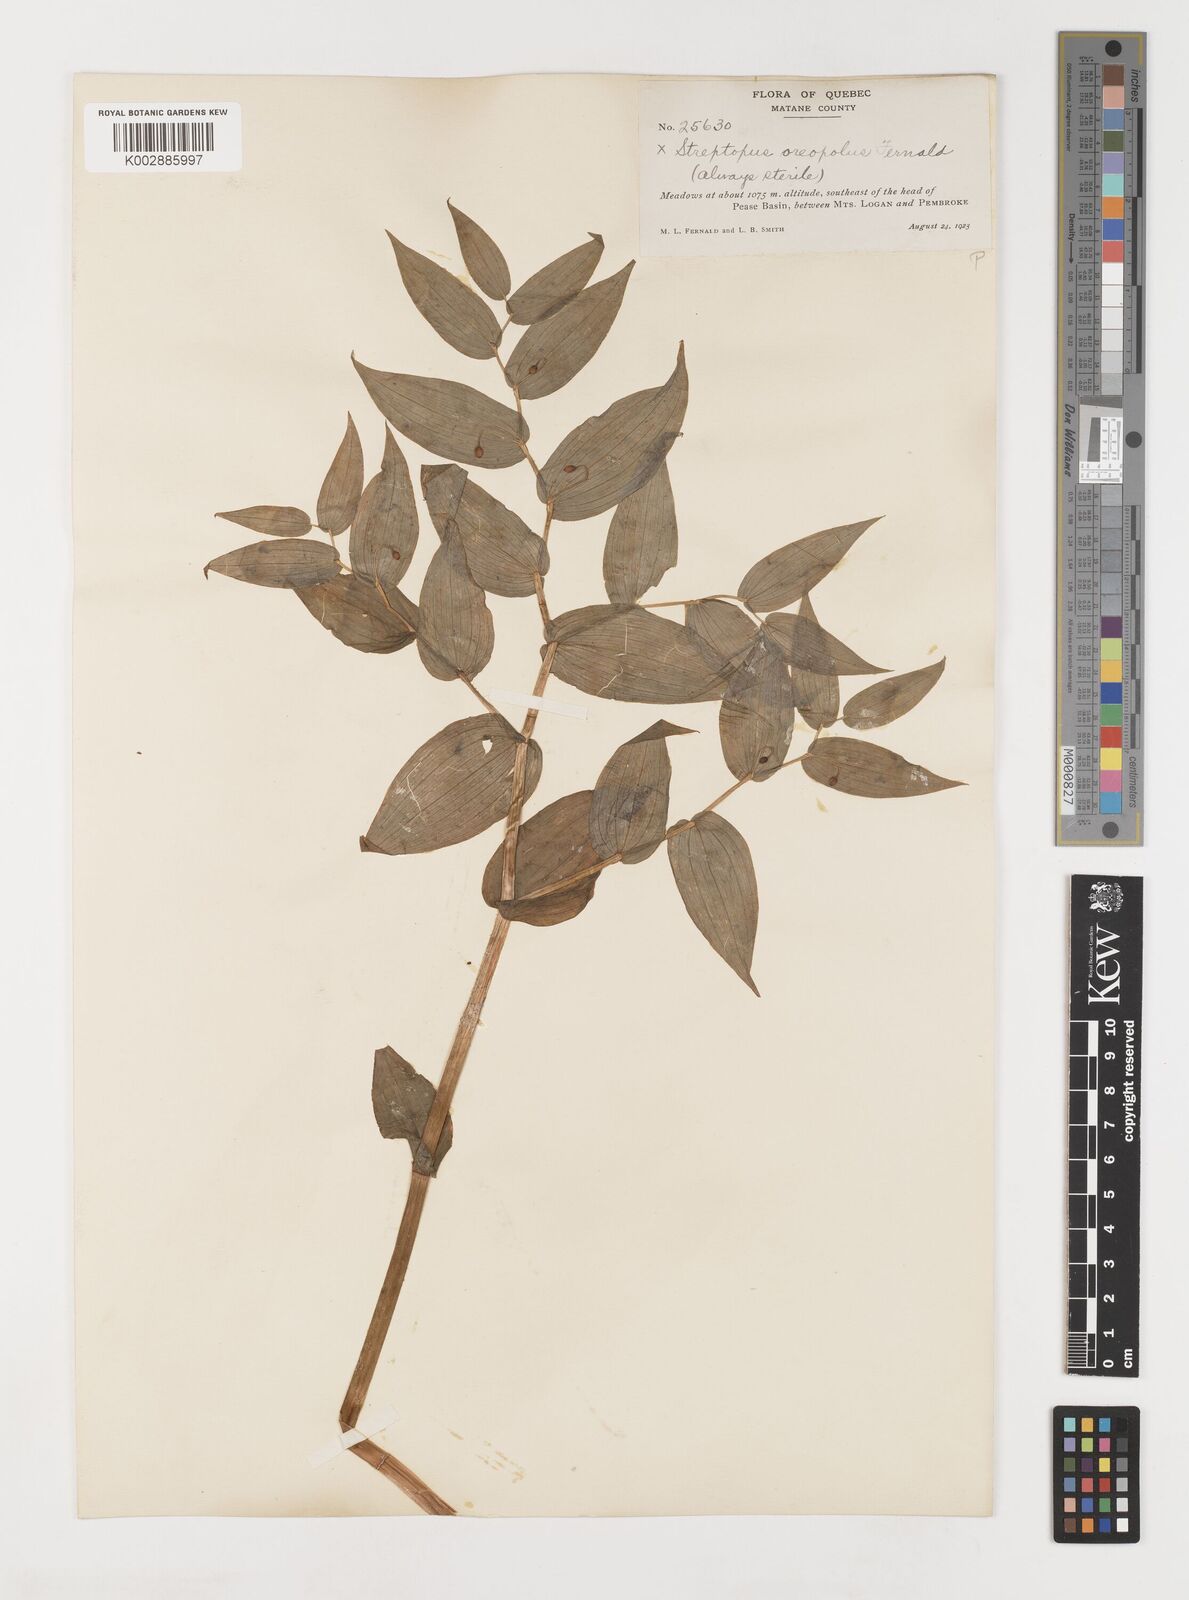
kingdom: Plantae
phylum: Tracheophyta
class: Liliopsida
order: Liliales
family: Liliaceae
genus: Streptopus
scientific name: Streptopus oreopolus
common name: Hybrid twisted-stalk
